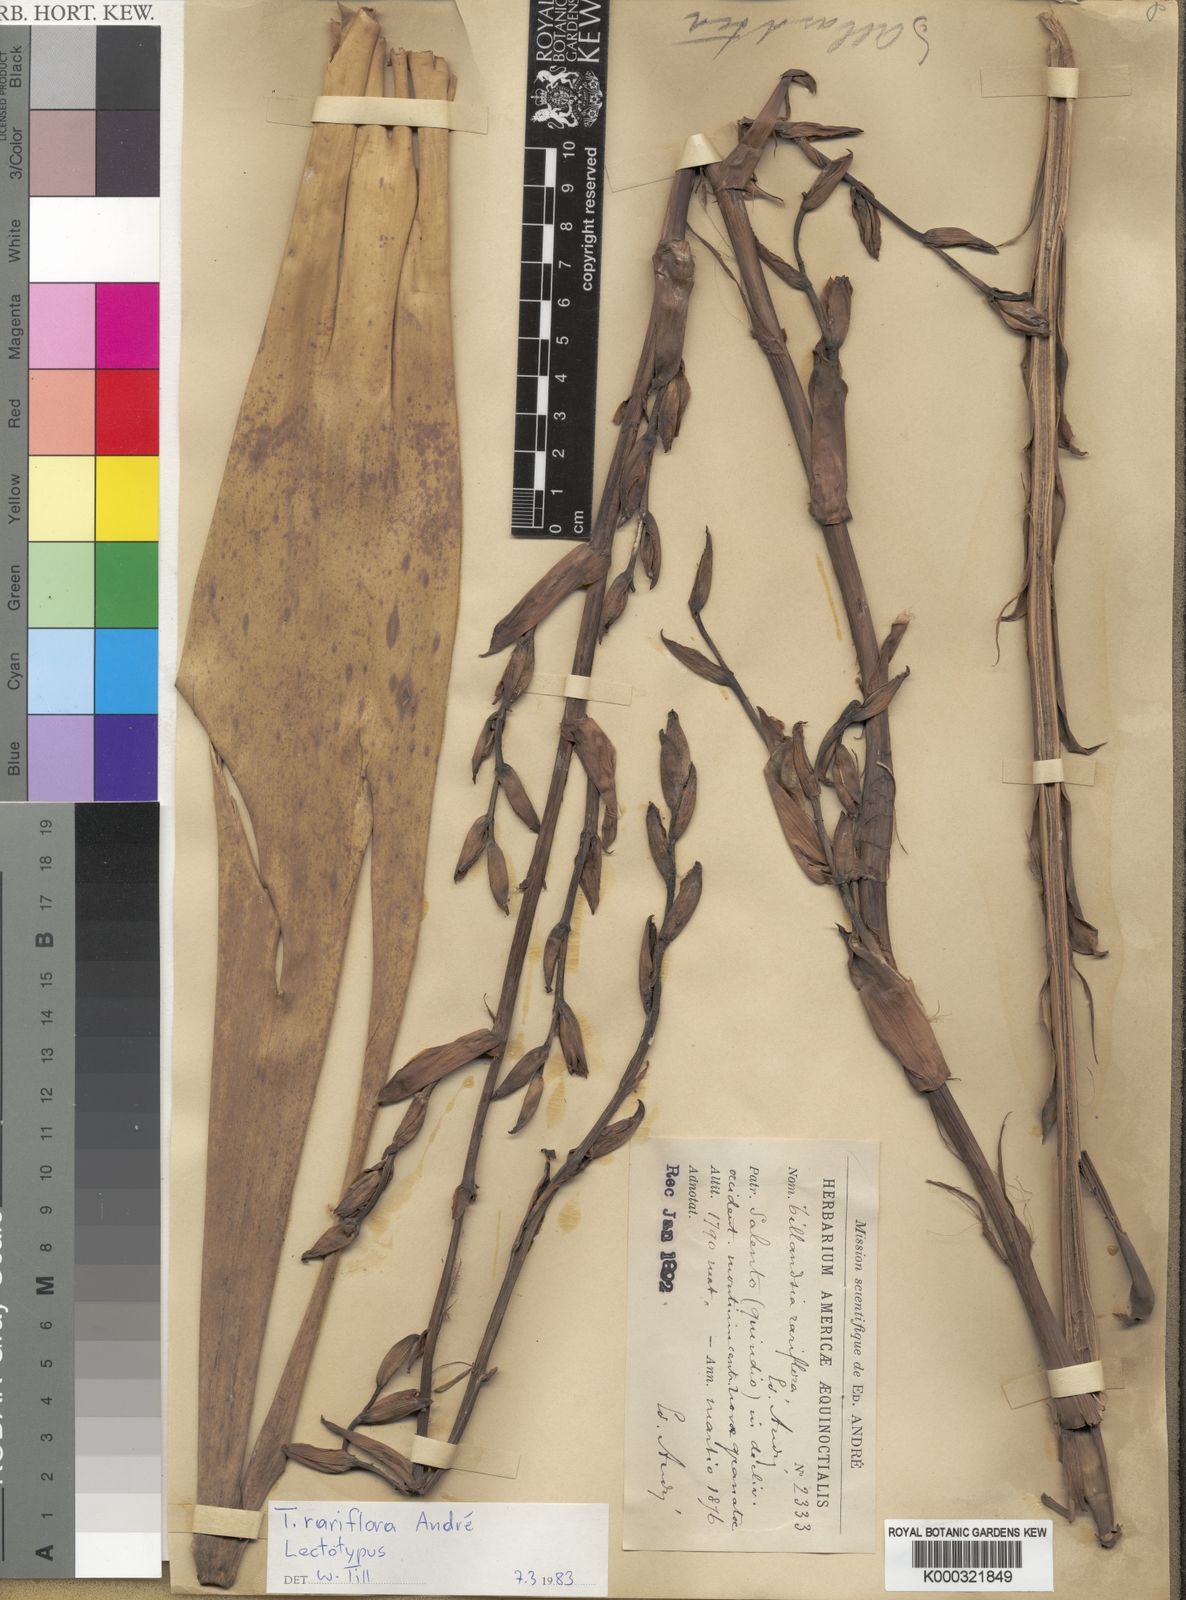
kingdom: Plantae
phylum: Tracheophyta
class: Liliopsida
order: Poales
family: Bromeliaceae
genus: Tillandsia
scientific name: Tillandsia
